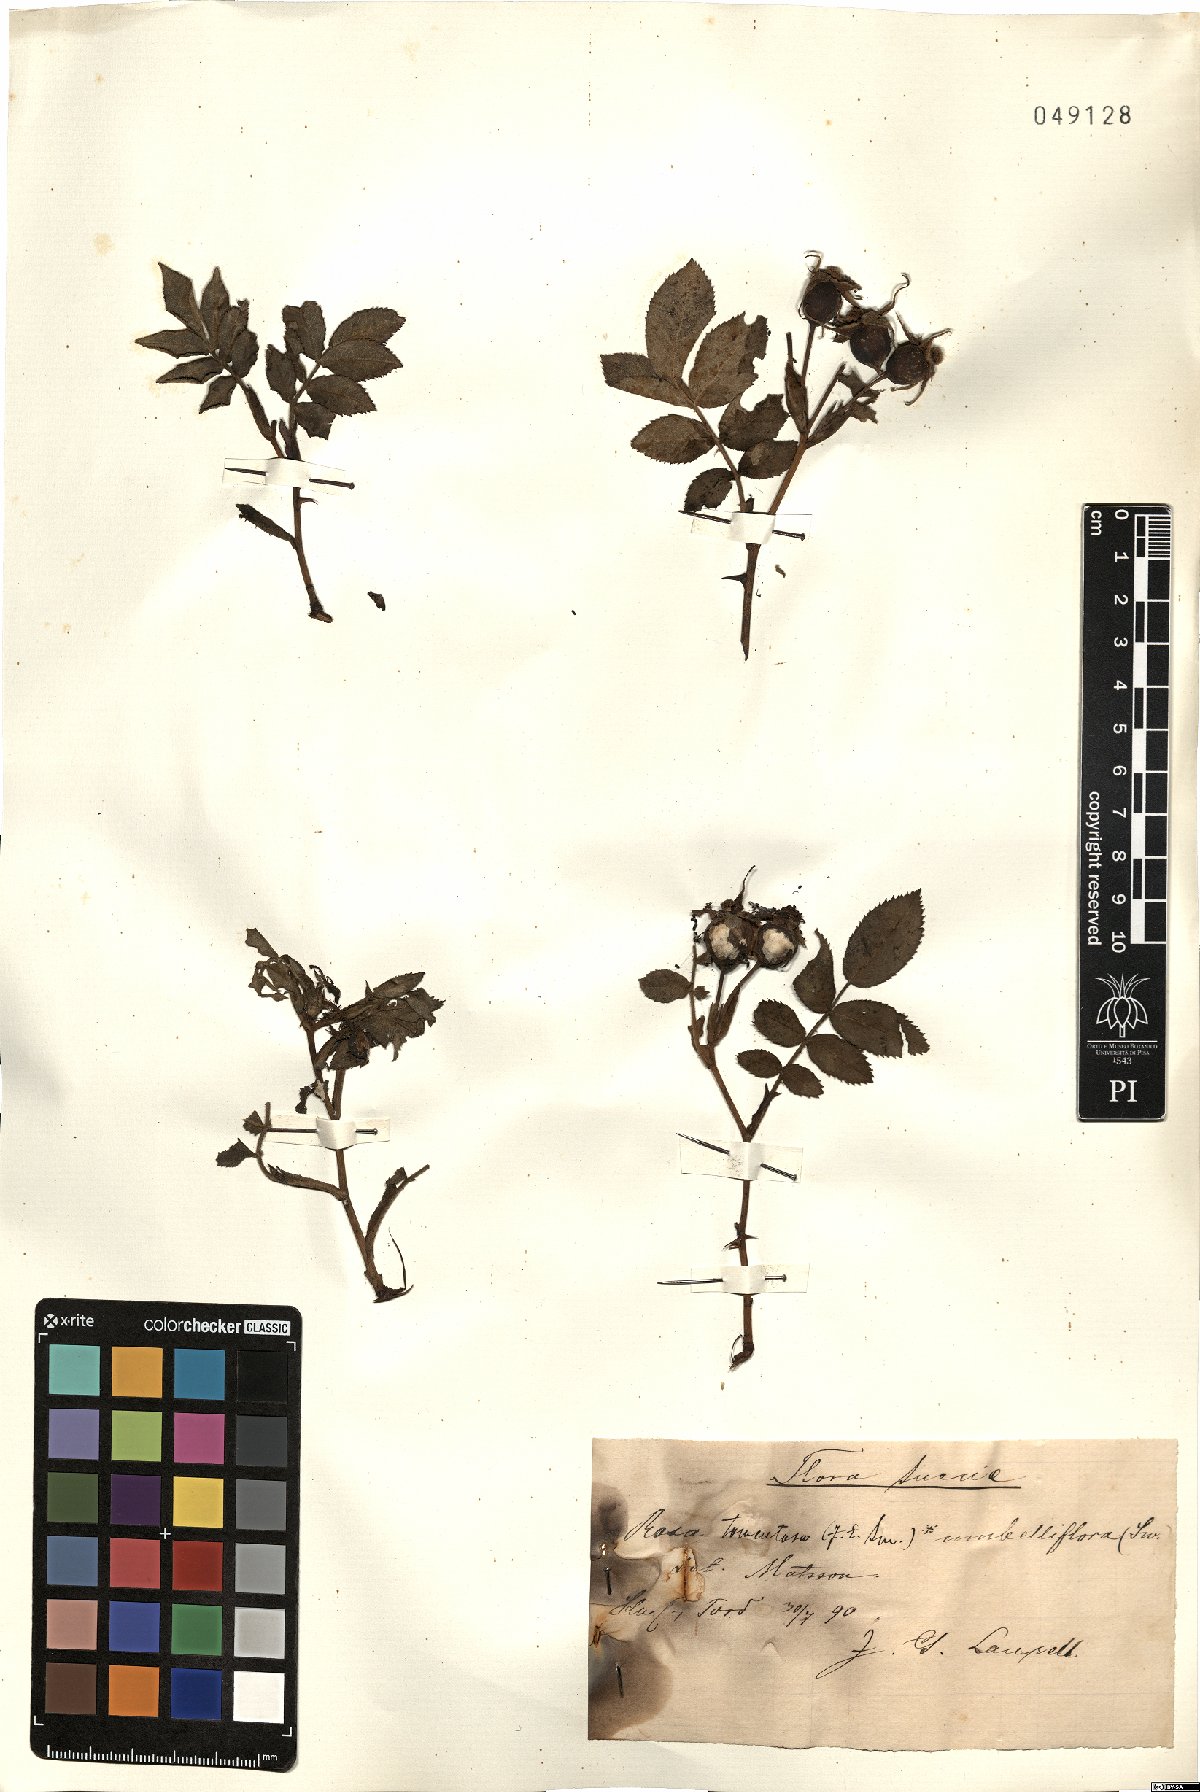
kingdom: Plantae
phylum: Tracheophyta
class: Magnoliopsida
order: Rosales
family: Rosaceae
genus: Rosa
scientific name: Rosa tomentosa
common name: Downy rose
